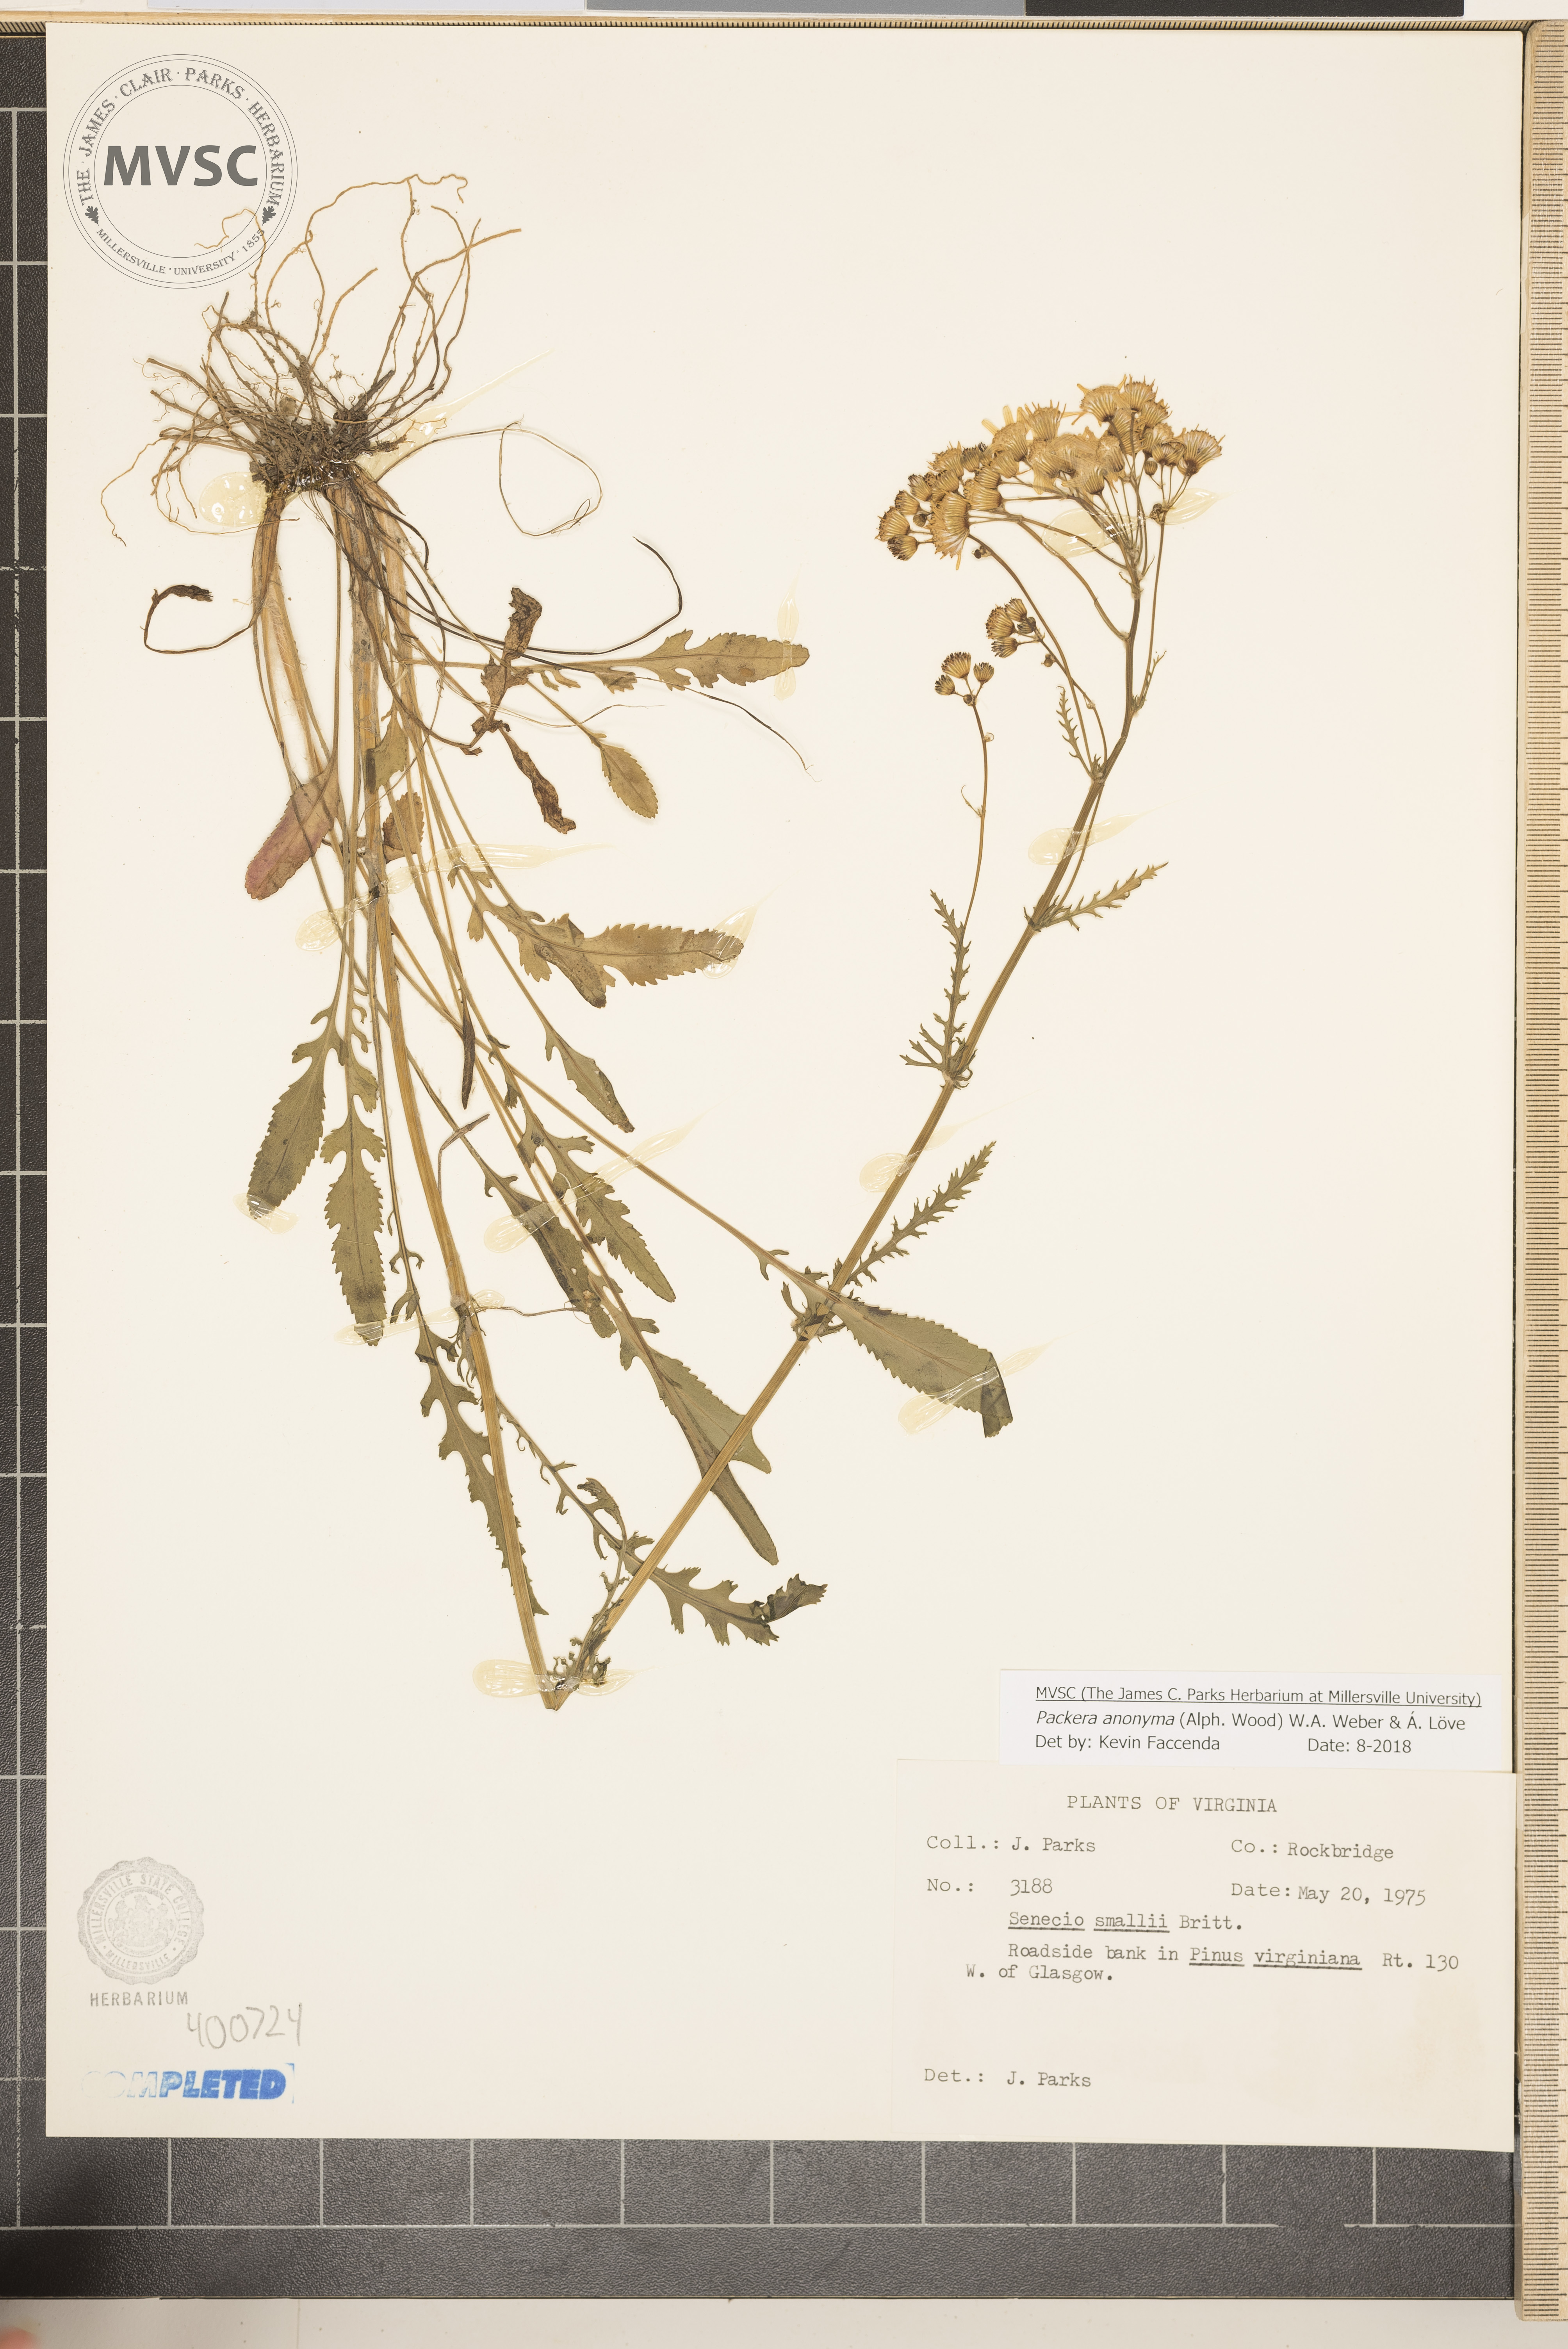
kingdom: Plantae
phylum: Tracheophyta
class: Magnoliopsida
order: Asterales
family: Asteraceae
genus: Packera
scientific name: Packera anonyma
